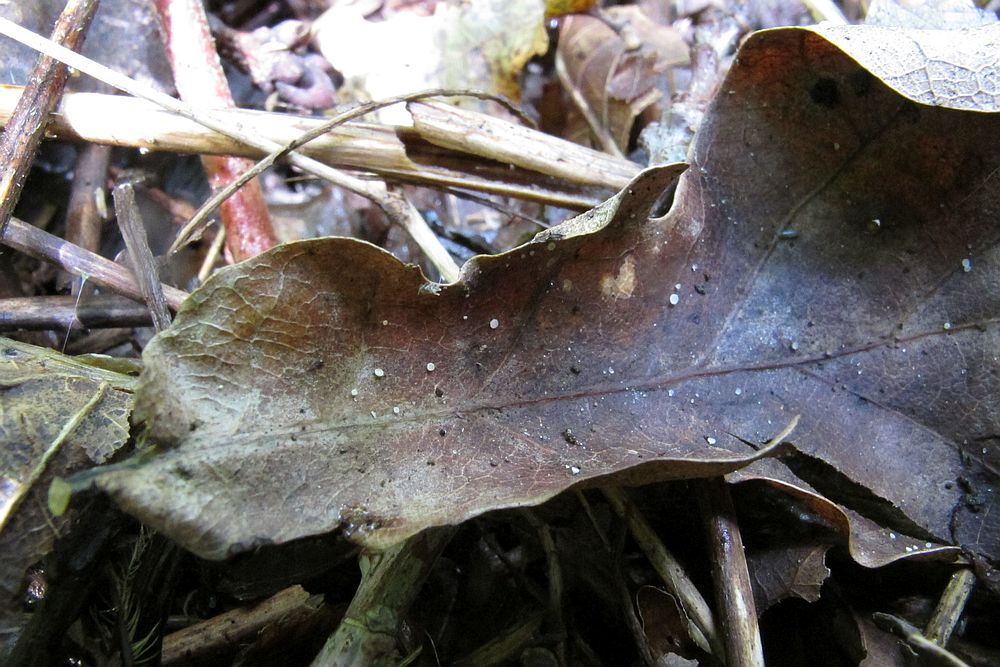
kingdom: Fungi
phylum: Ascomycota
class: Leotiomycetes
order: Helotiales
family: Lachnaceae
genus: Brunnipila
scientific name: Brunnipila brunneola
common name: læderbrun frynseskive
